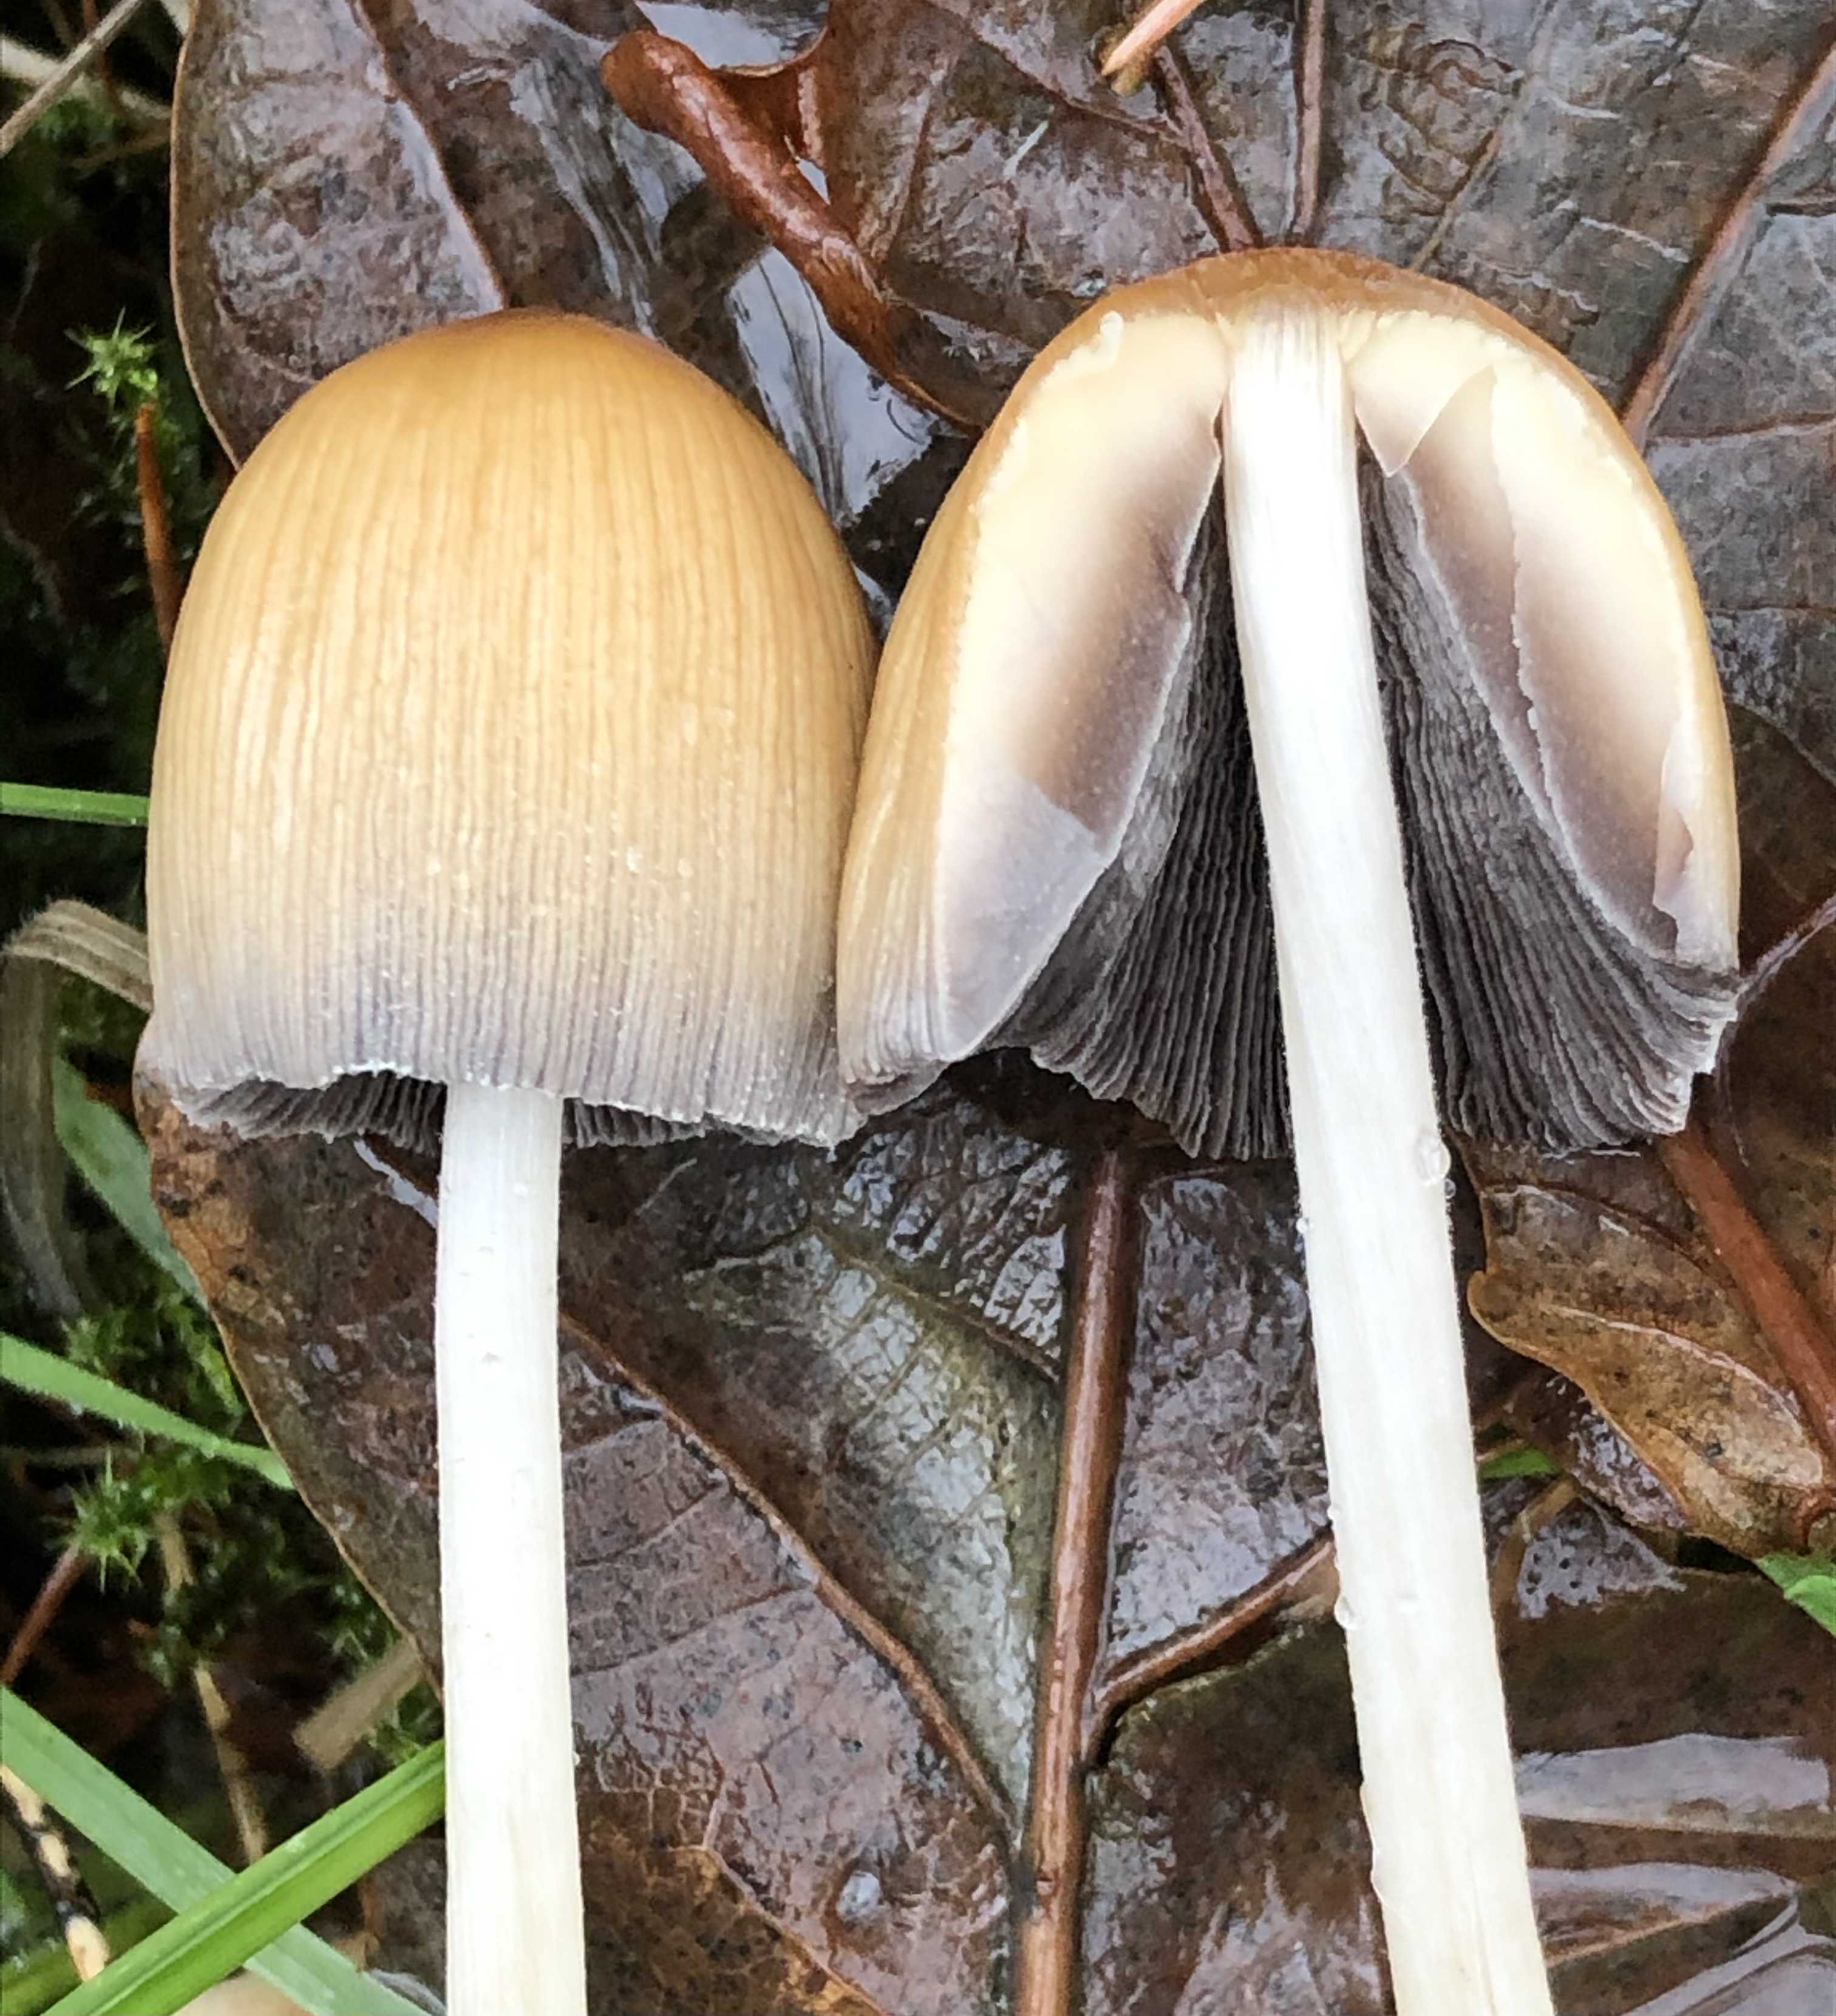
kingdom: Fungi
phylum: Basidiomycota
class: Agaricomycetes
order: Agaricales
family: Psathyrellaceae
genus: Coprinellus
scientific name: Coprinellus
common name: blækhat
